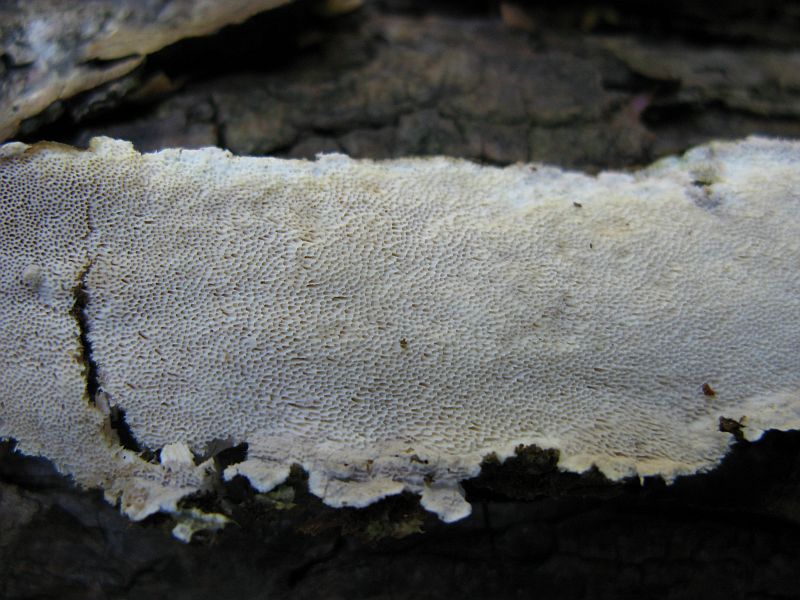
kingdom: Fungi
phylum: Basidiomycota
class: Agaricomycetes
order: Polyporales
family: Gelatoporiaceae
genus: Cinereomyces
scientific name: Cinereomyces lindbladii
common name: almindelig gråporesvamp
